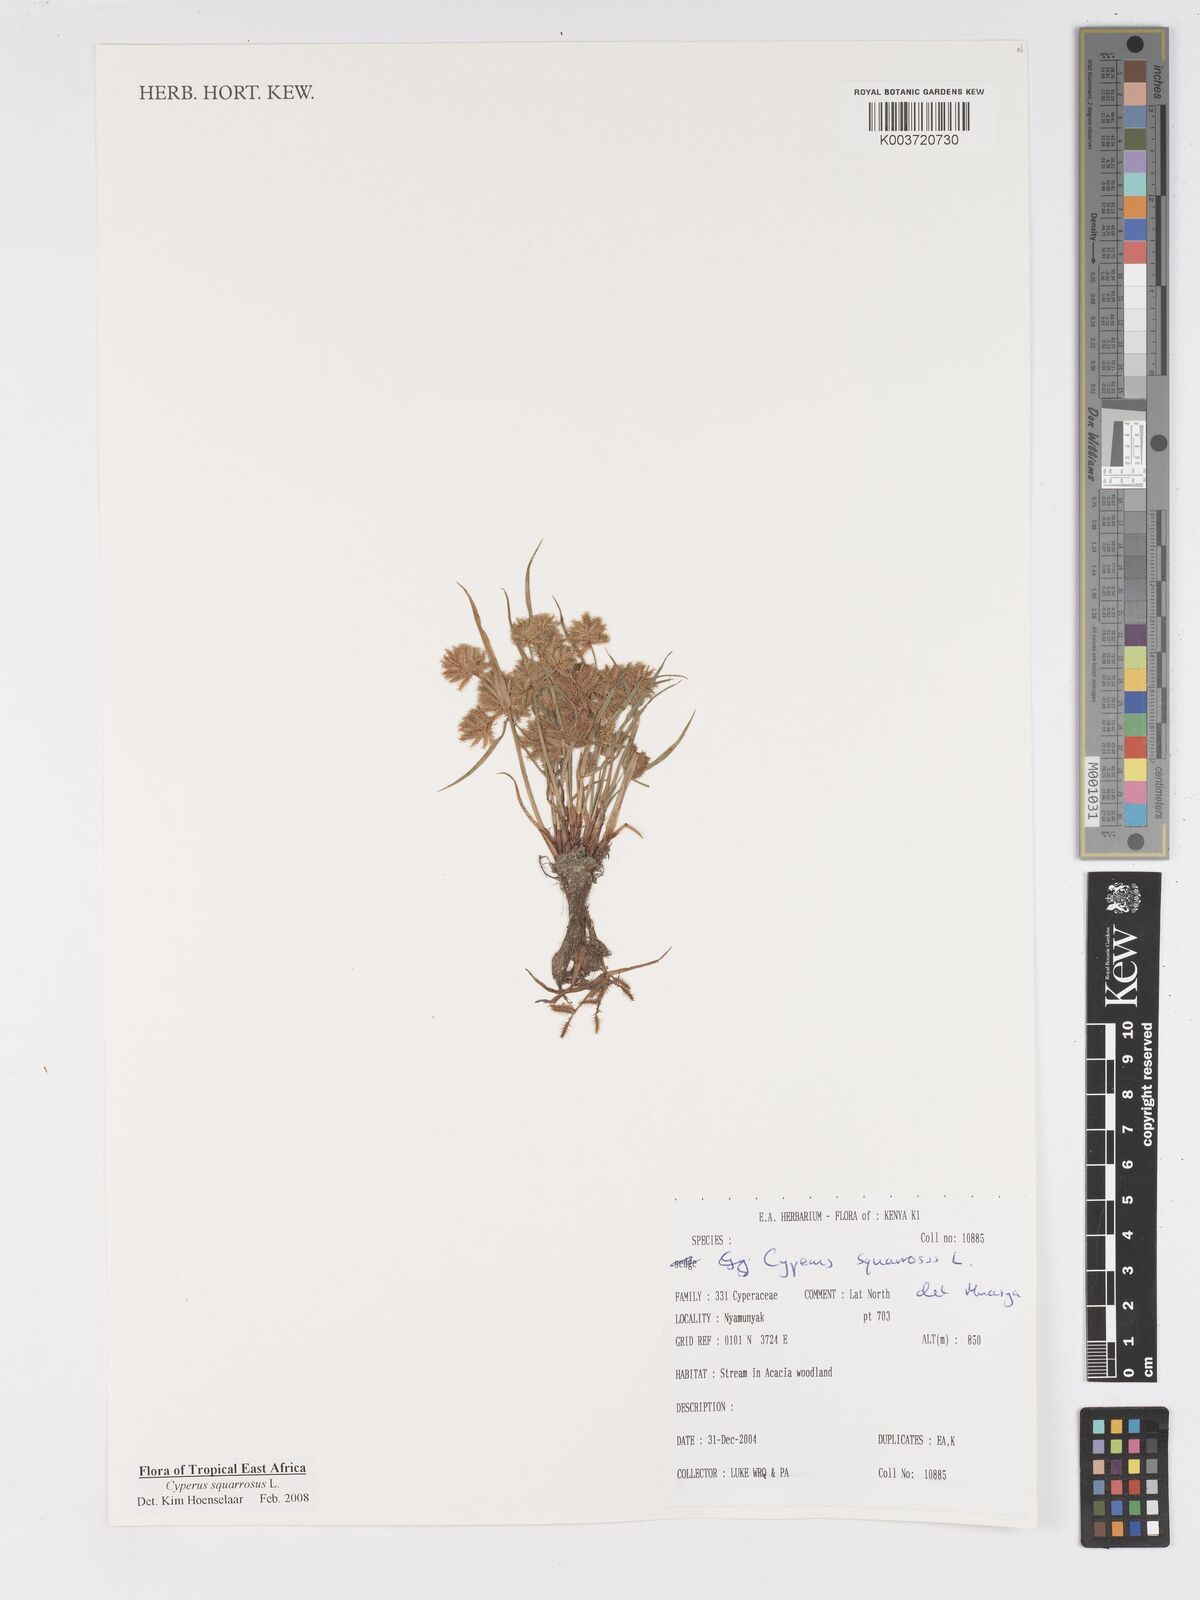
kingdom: Plantae
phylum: Tracheophyta
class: Liliopsida
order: Poales
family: Cyperaceae
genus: Cyperus
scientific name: Cyperus squarrosus
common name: Awned cyperus
